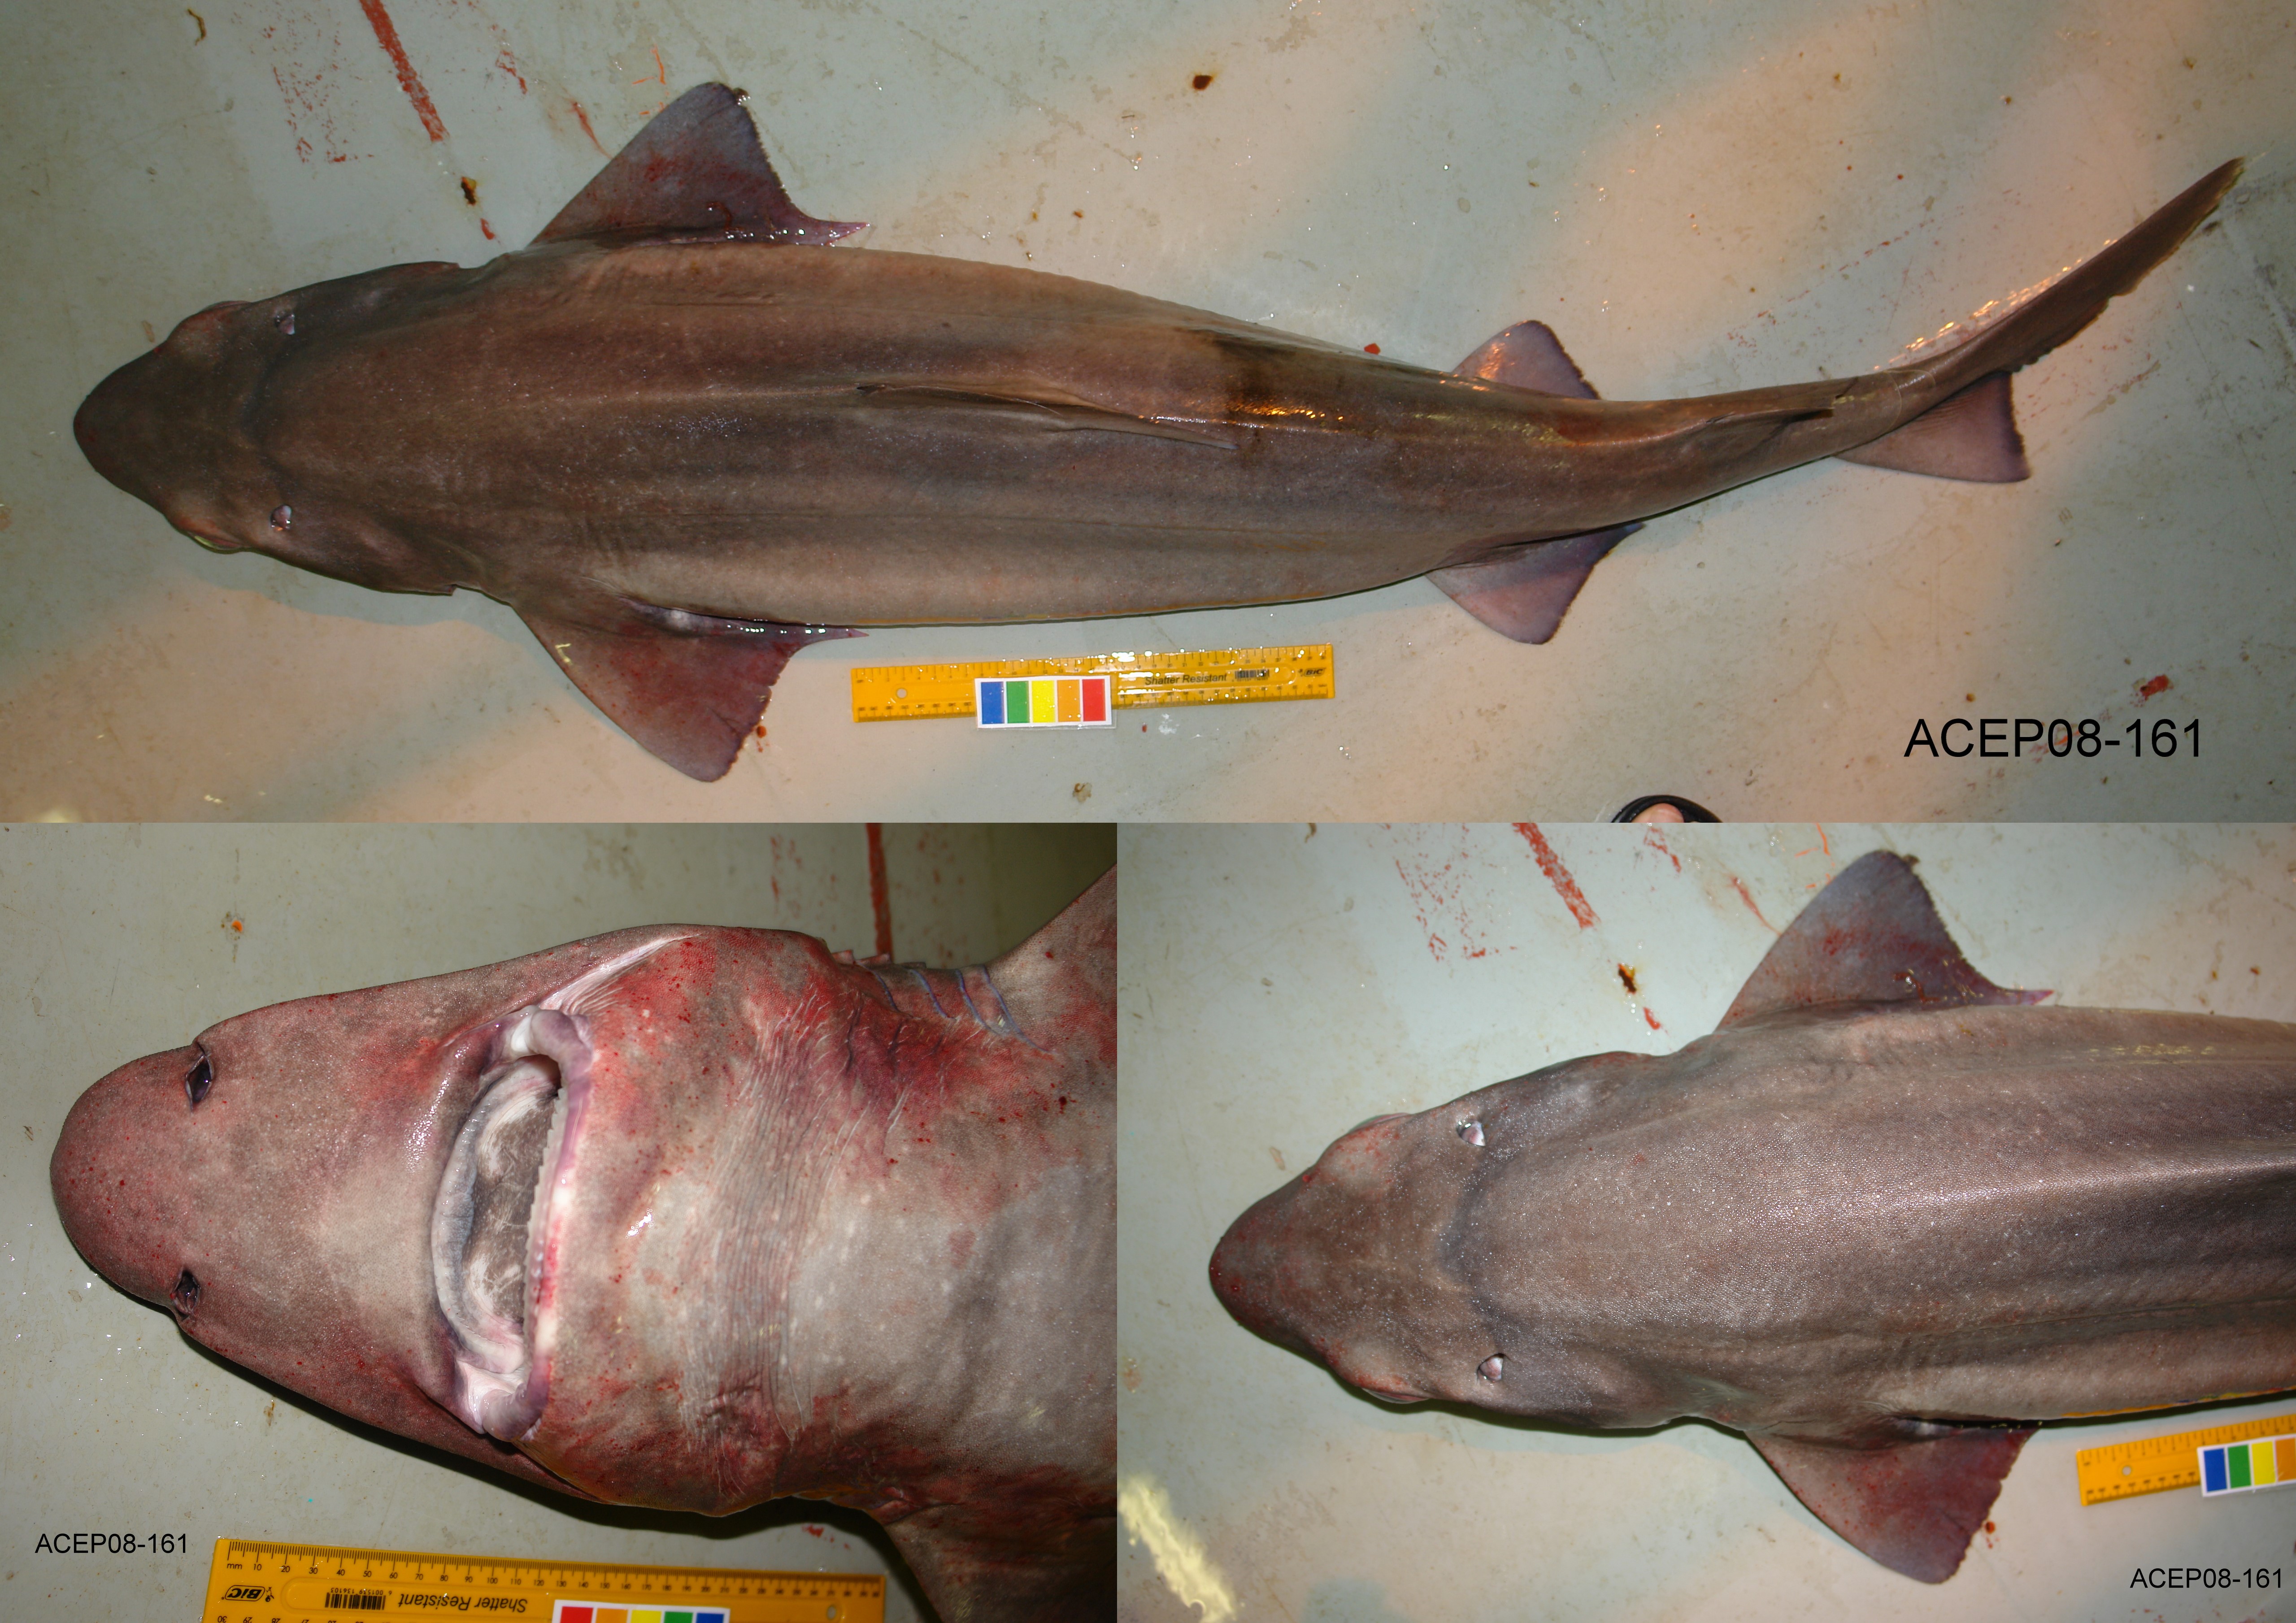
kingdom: Animalia
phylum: Chordata
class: Elasmobranchii
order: Squaliformes
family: Centrophoridae
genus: Centrophorus
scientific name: Centrophorus lusitanicus
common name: Lowfin gulper shark
